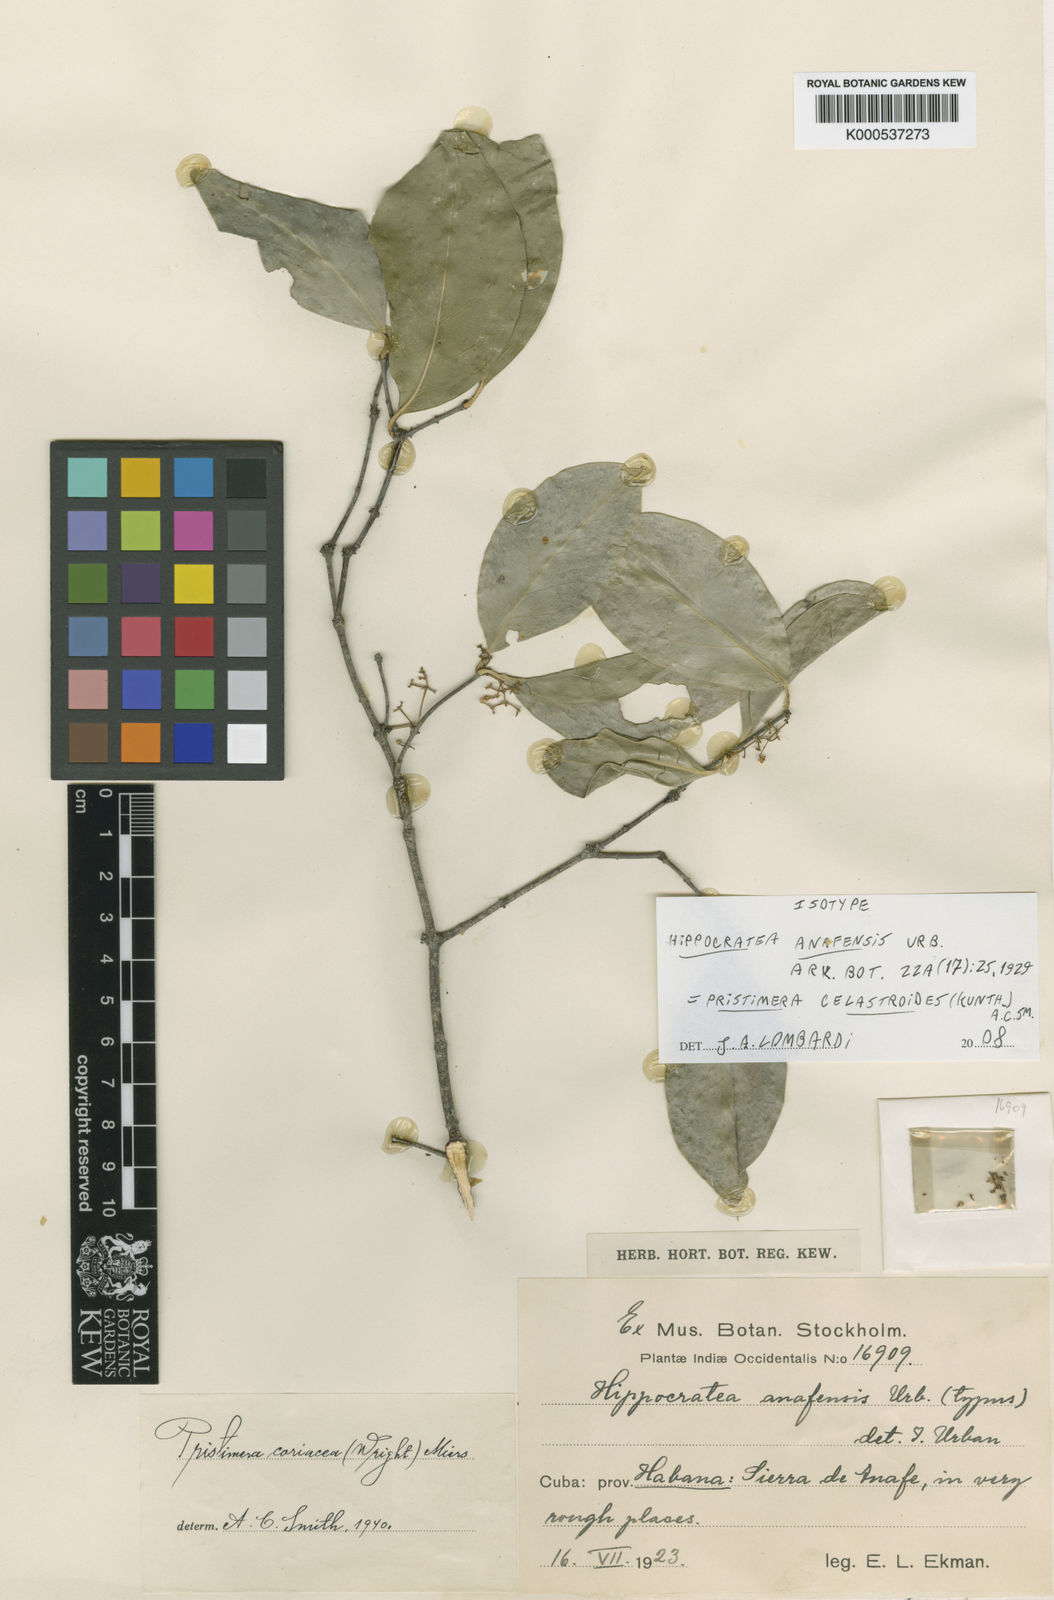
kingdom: Plantae
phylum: Tracheophyta
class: Magnoliopsida
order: Celastrales
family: Celastraceae
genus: Pristimera
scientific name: Pristimera celastroides
